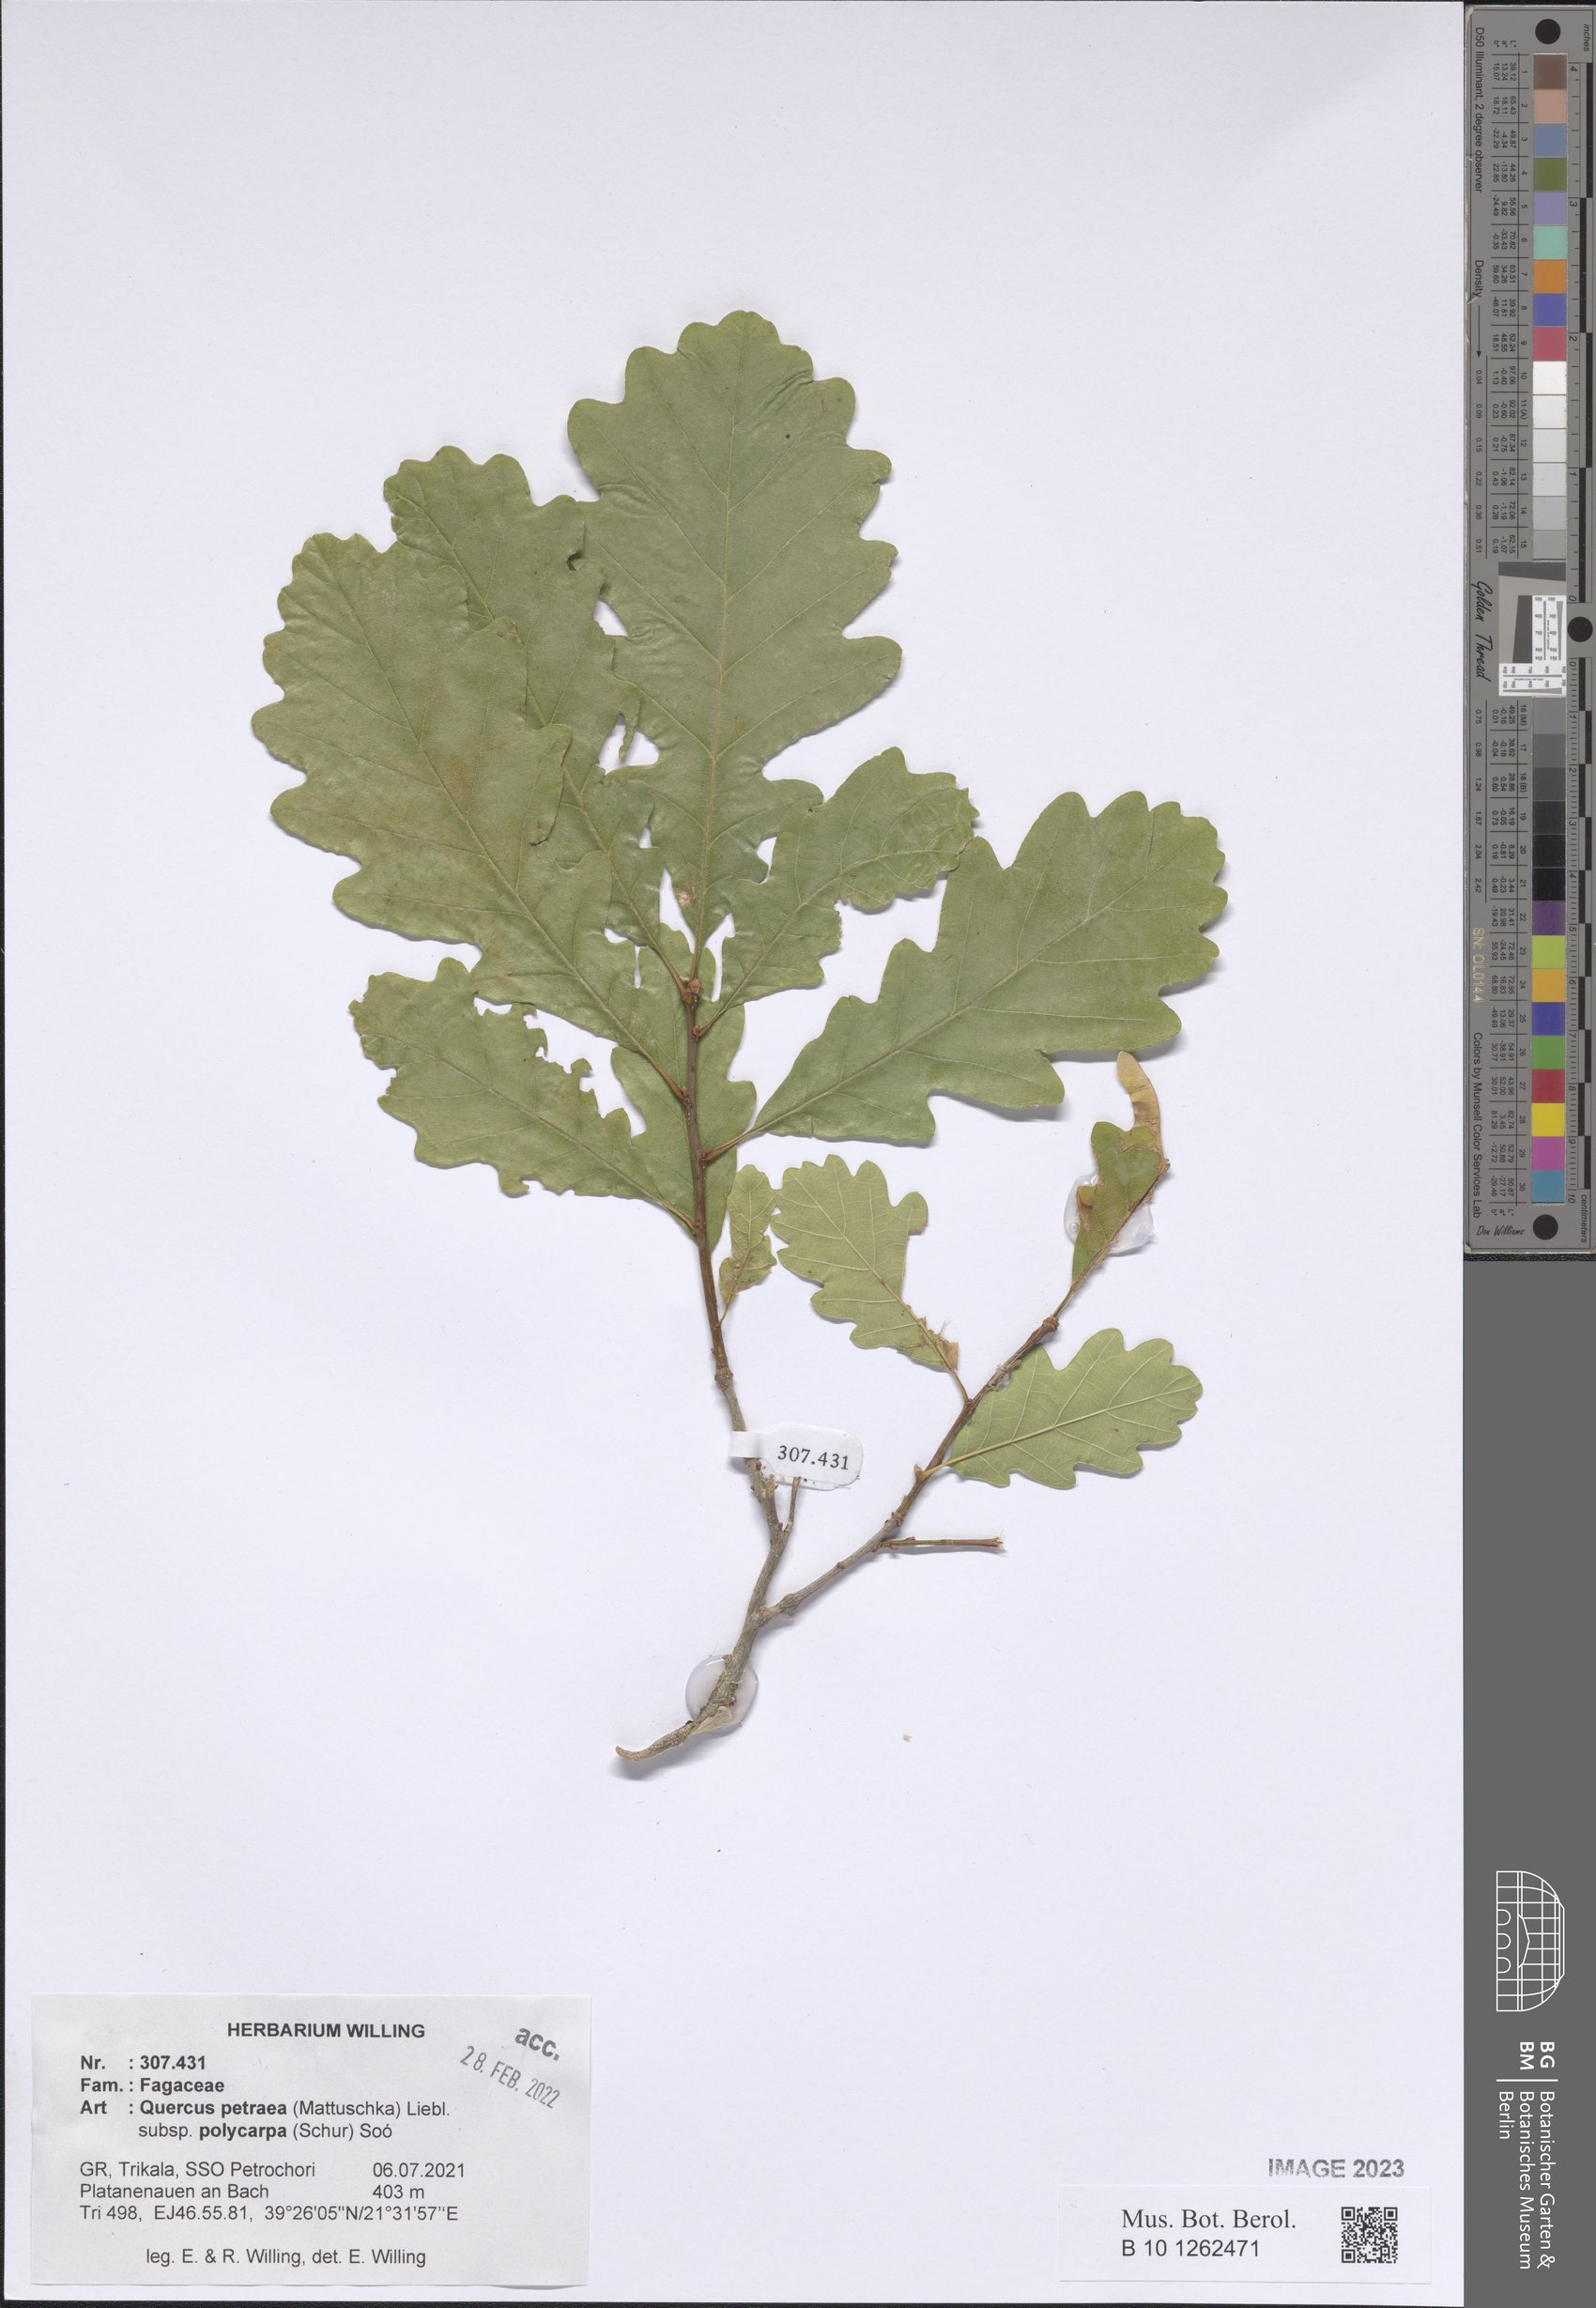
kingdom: Plantae
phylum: Tracheophyta
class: Magnoliopsida
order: Fagales
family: Fagaceae
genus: Quercus
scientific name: Quercus petraea
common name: Sessile oak
